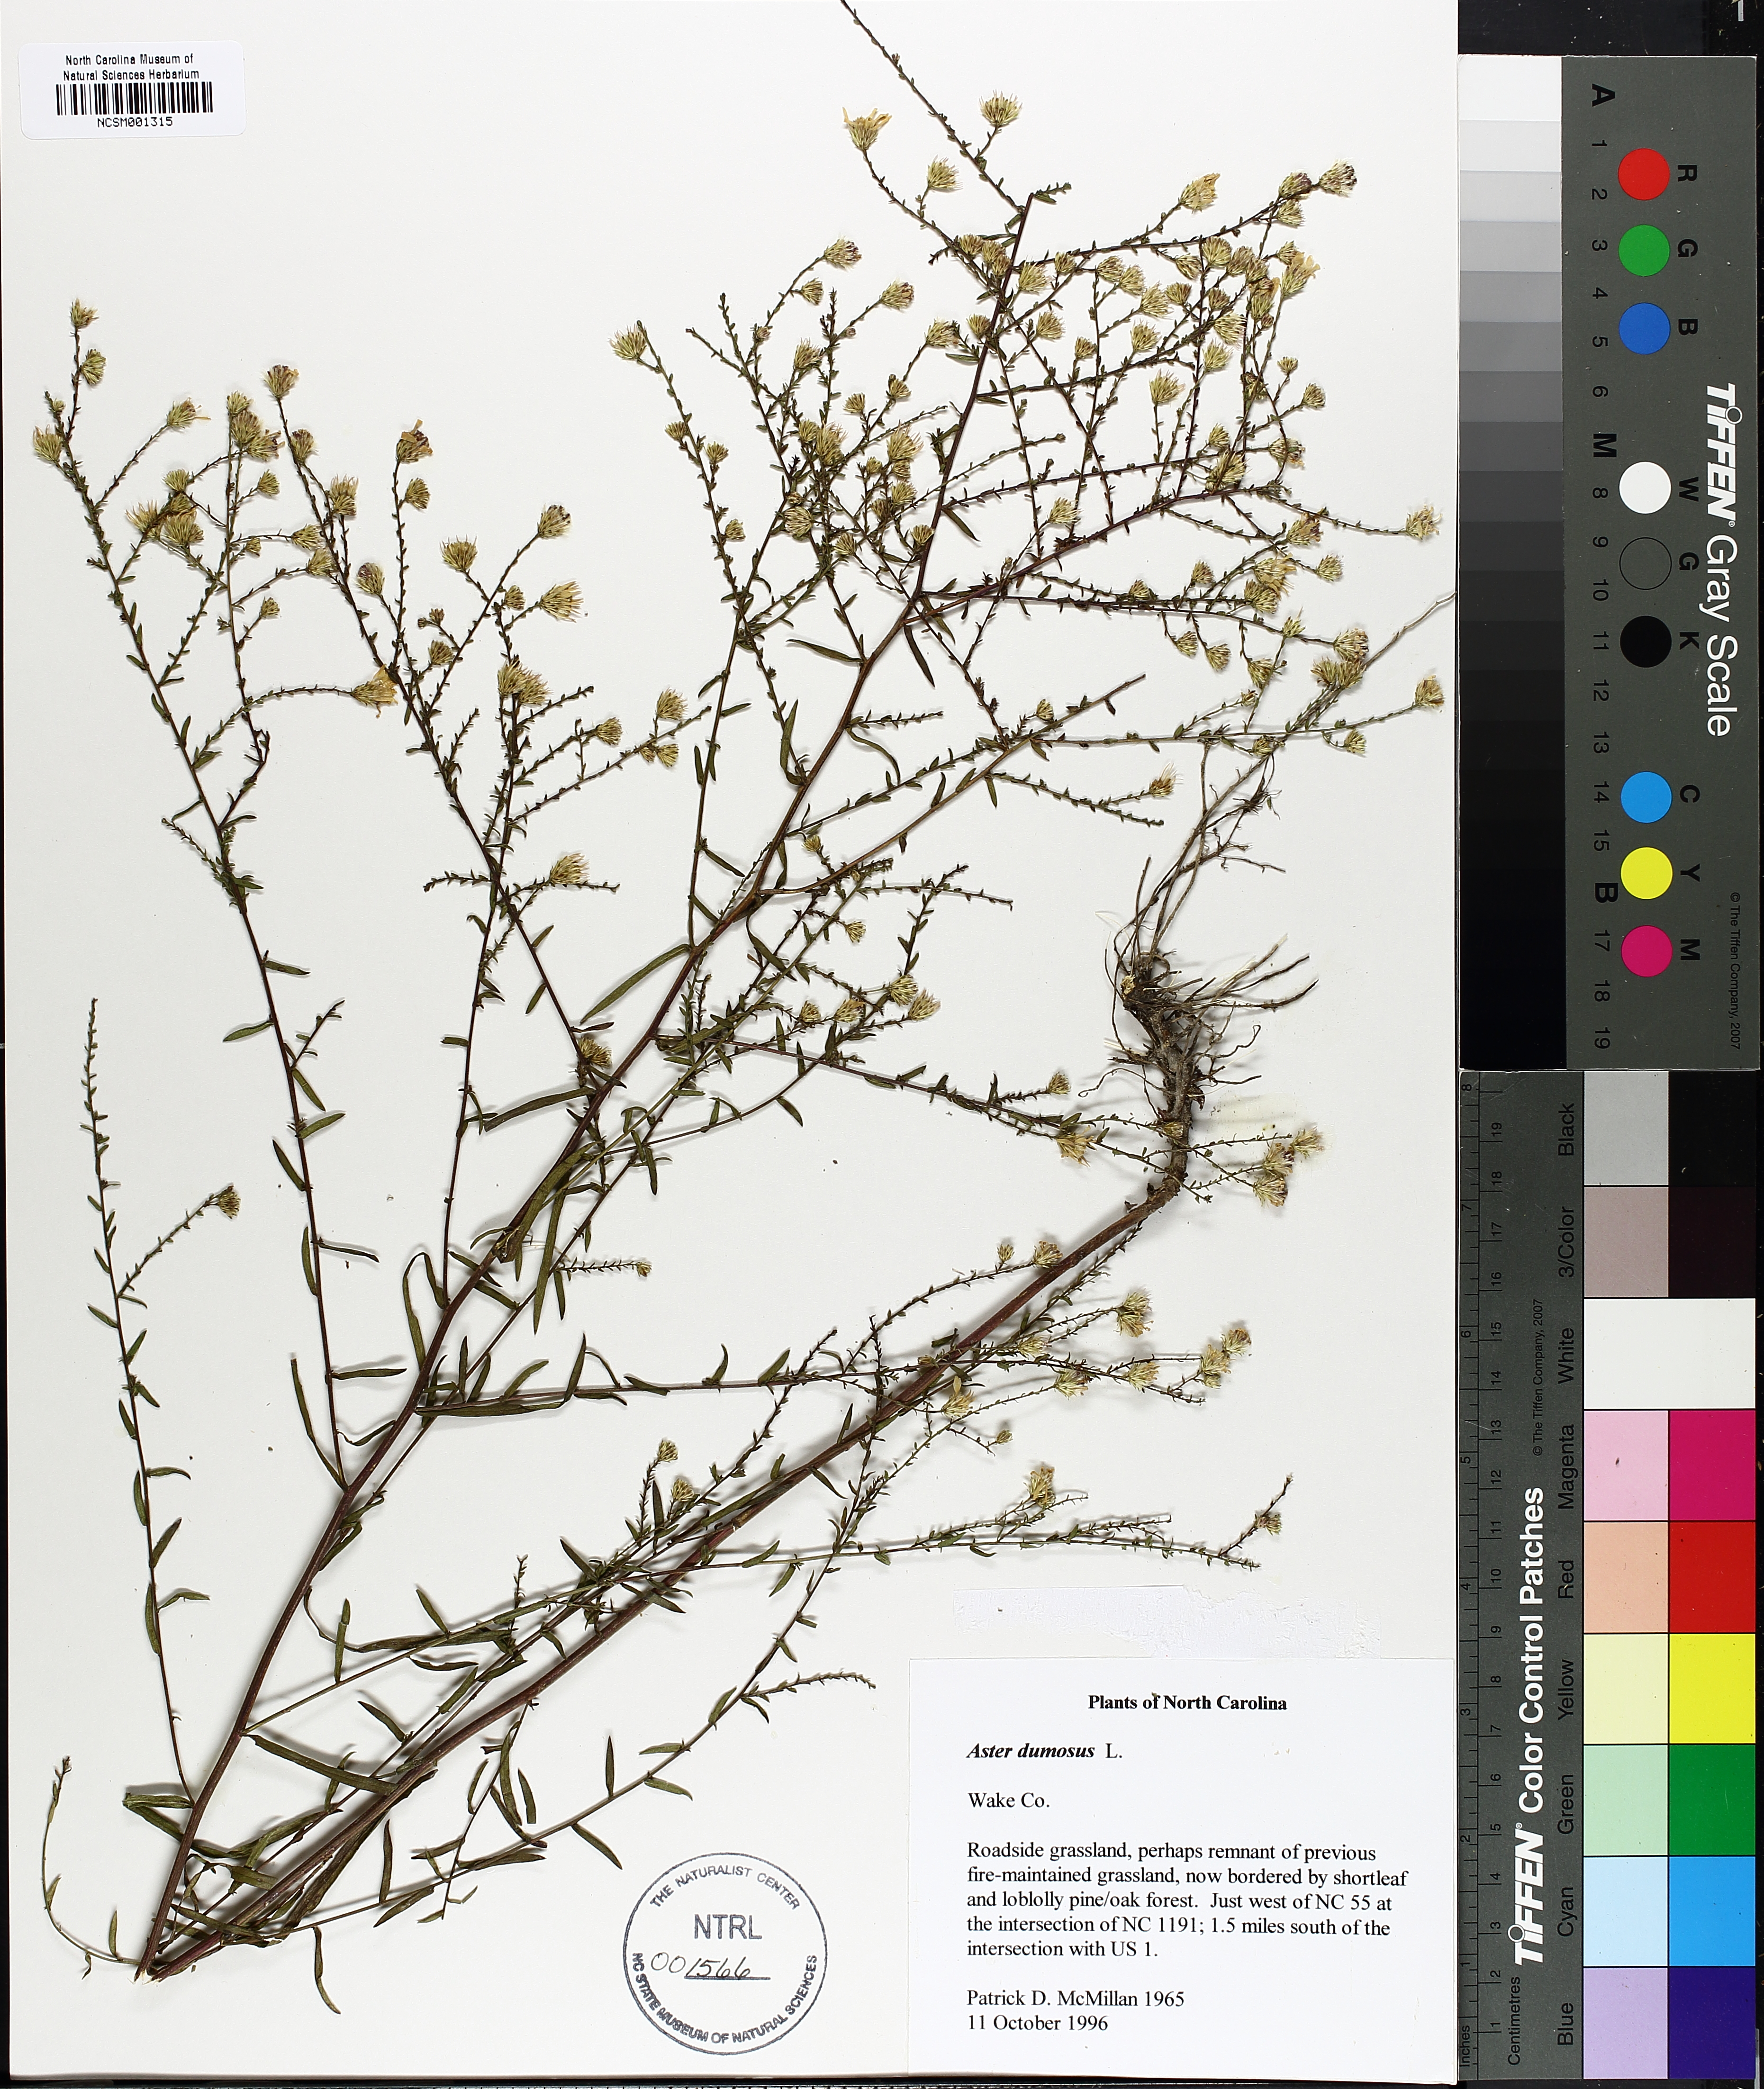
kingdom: Plantae
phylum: Tracheophyta
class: Magnoliopsida
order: Asterales
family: Asteraceae
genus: Symphyotrichum
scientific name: Symphyotrichum dumosum
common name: Bushy aster
